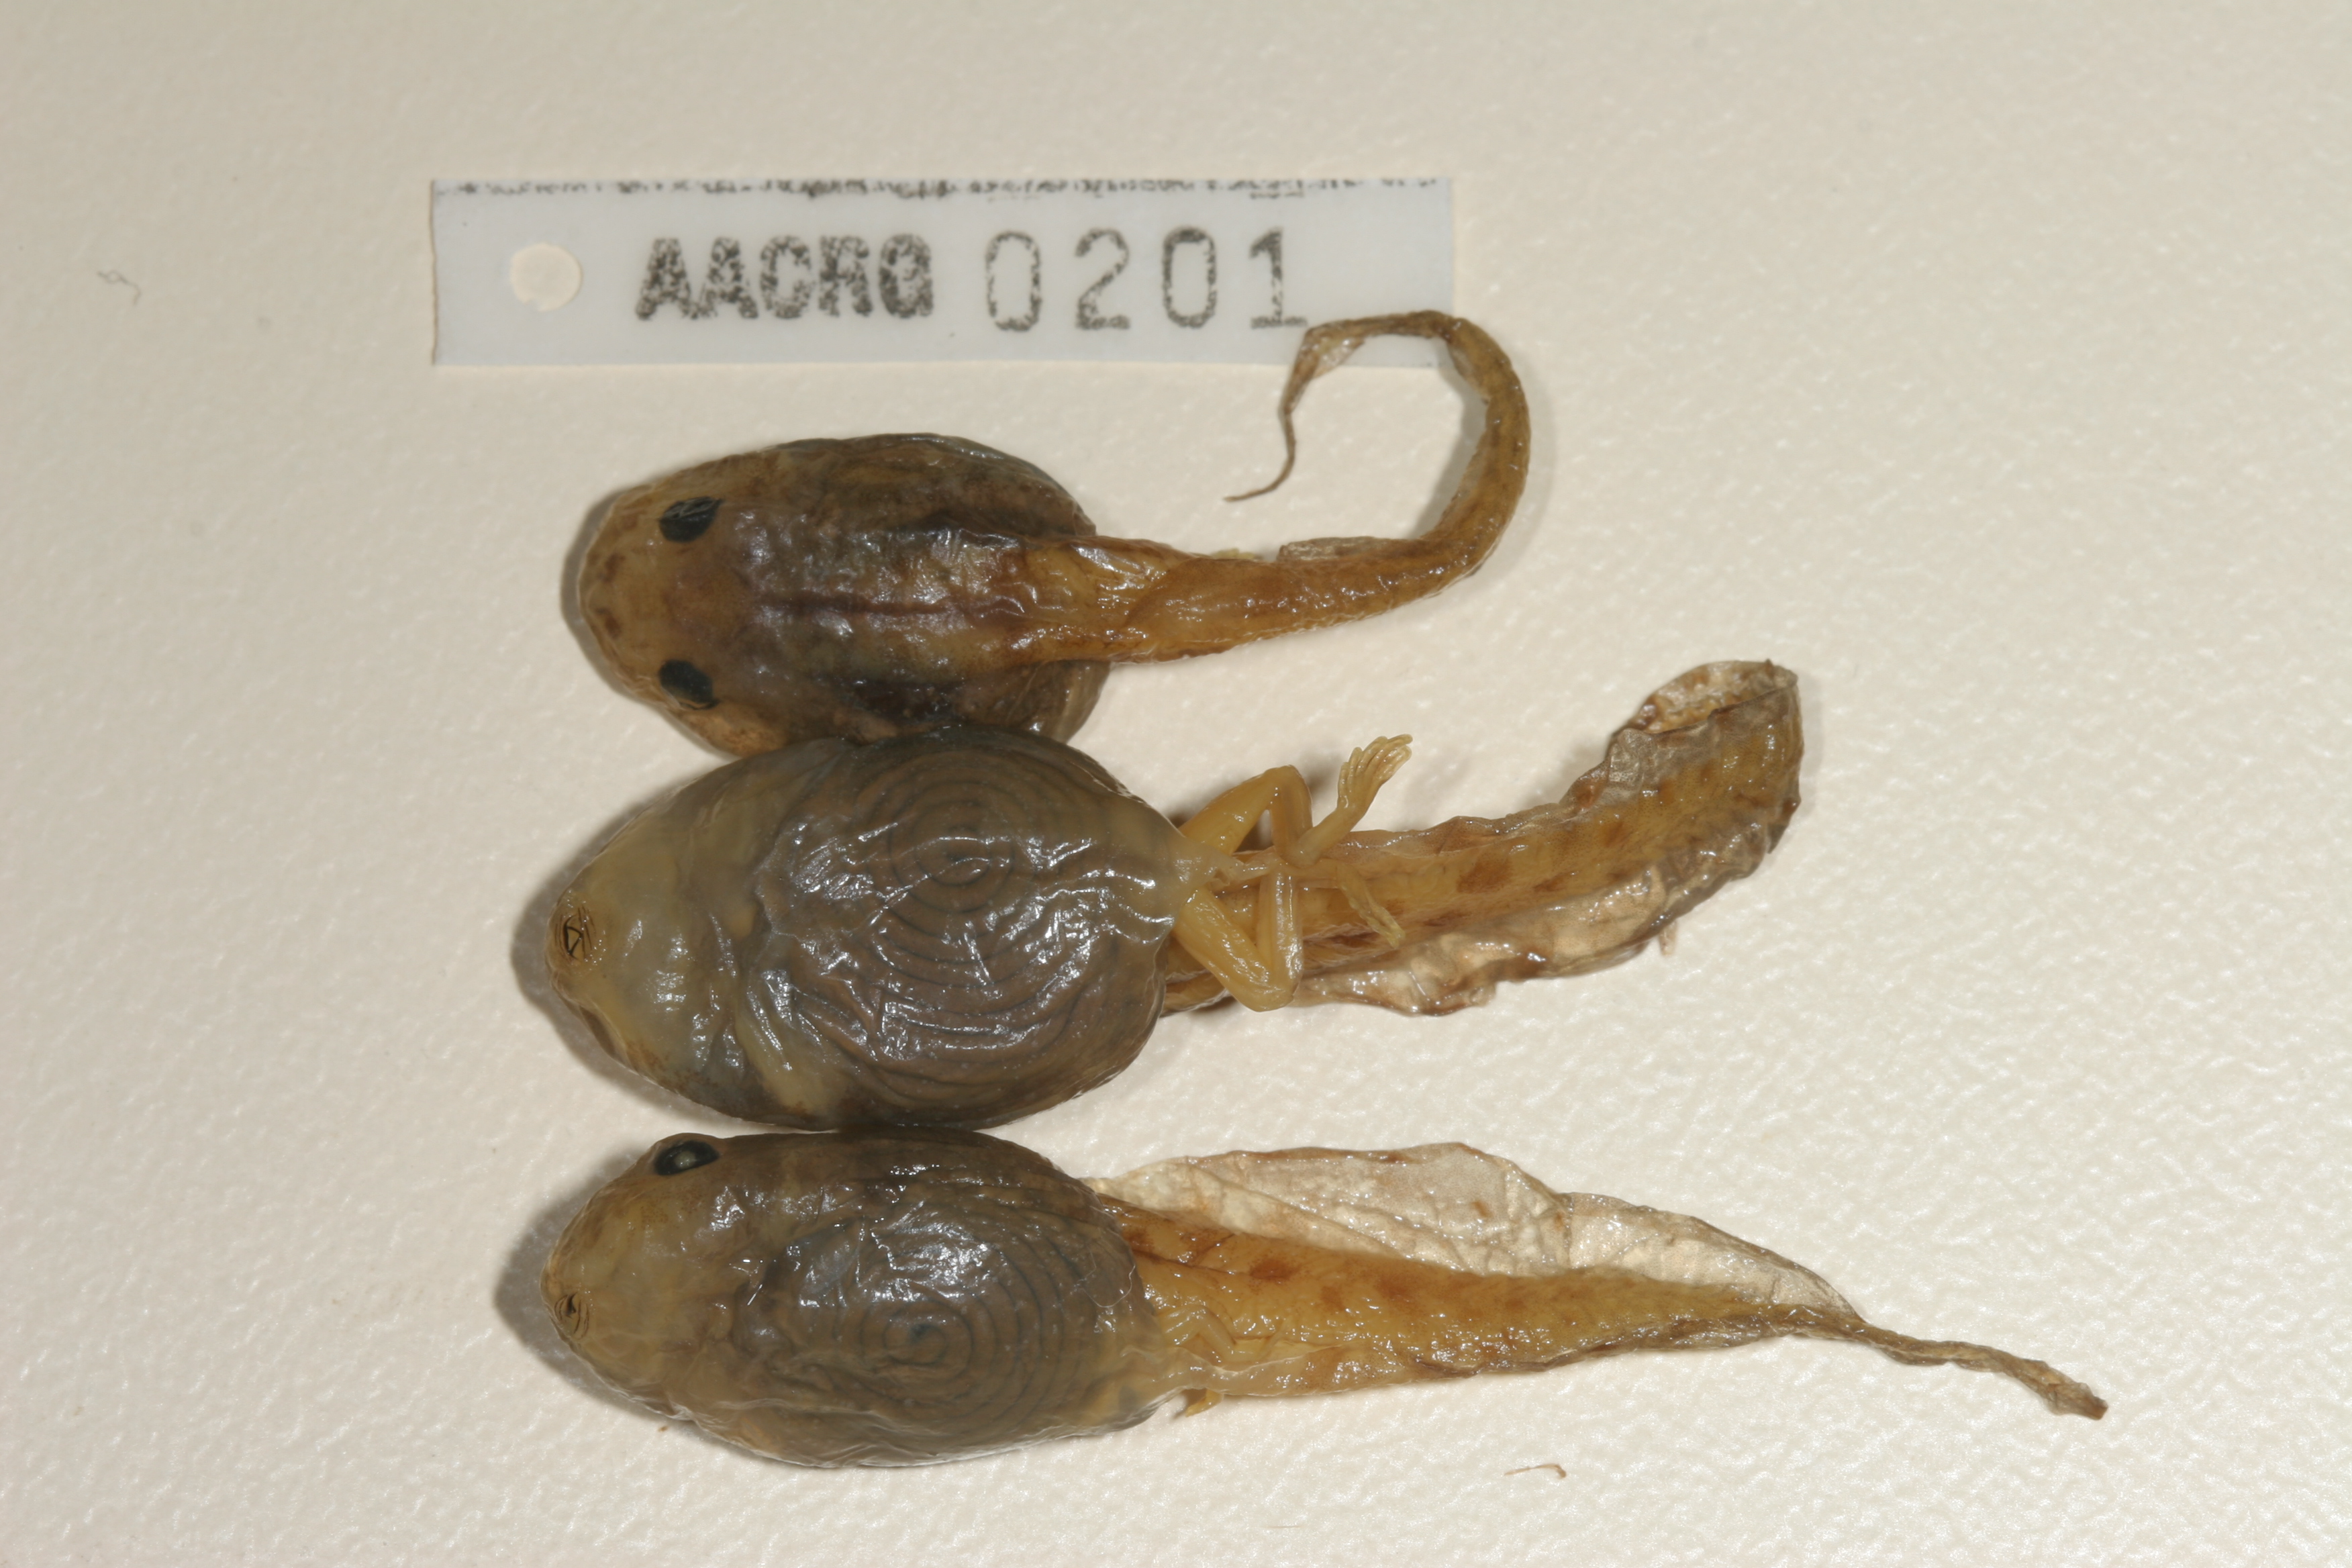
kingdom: Animalia
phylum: Chordata
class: Amphibia
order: Anura
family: Rhacophoridae
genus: Chiromantis
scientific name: Chiromantis xerampelina
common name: African gray treefrog
